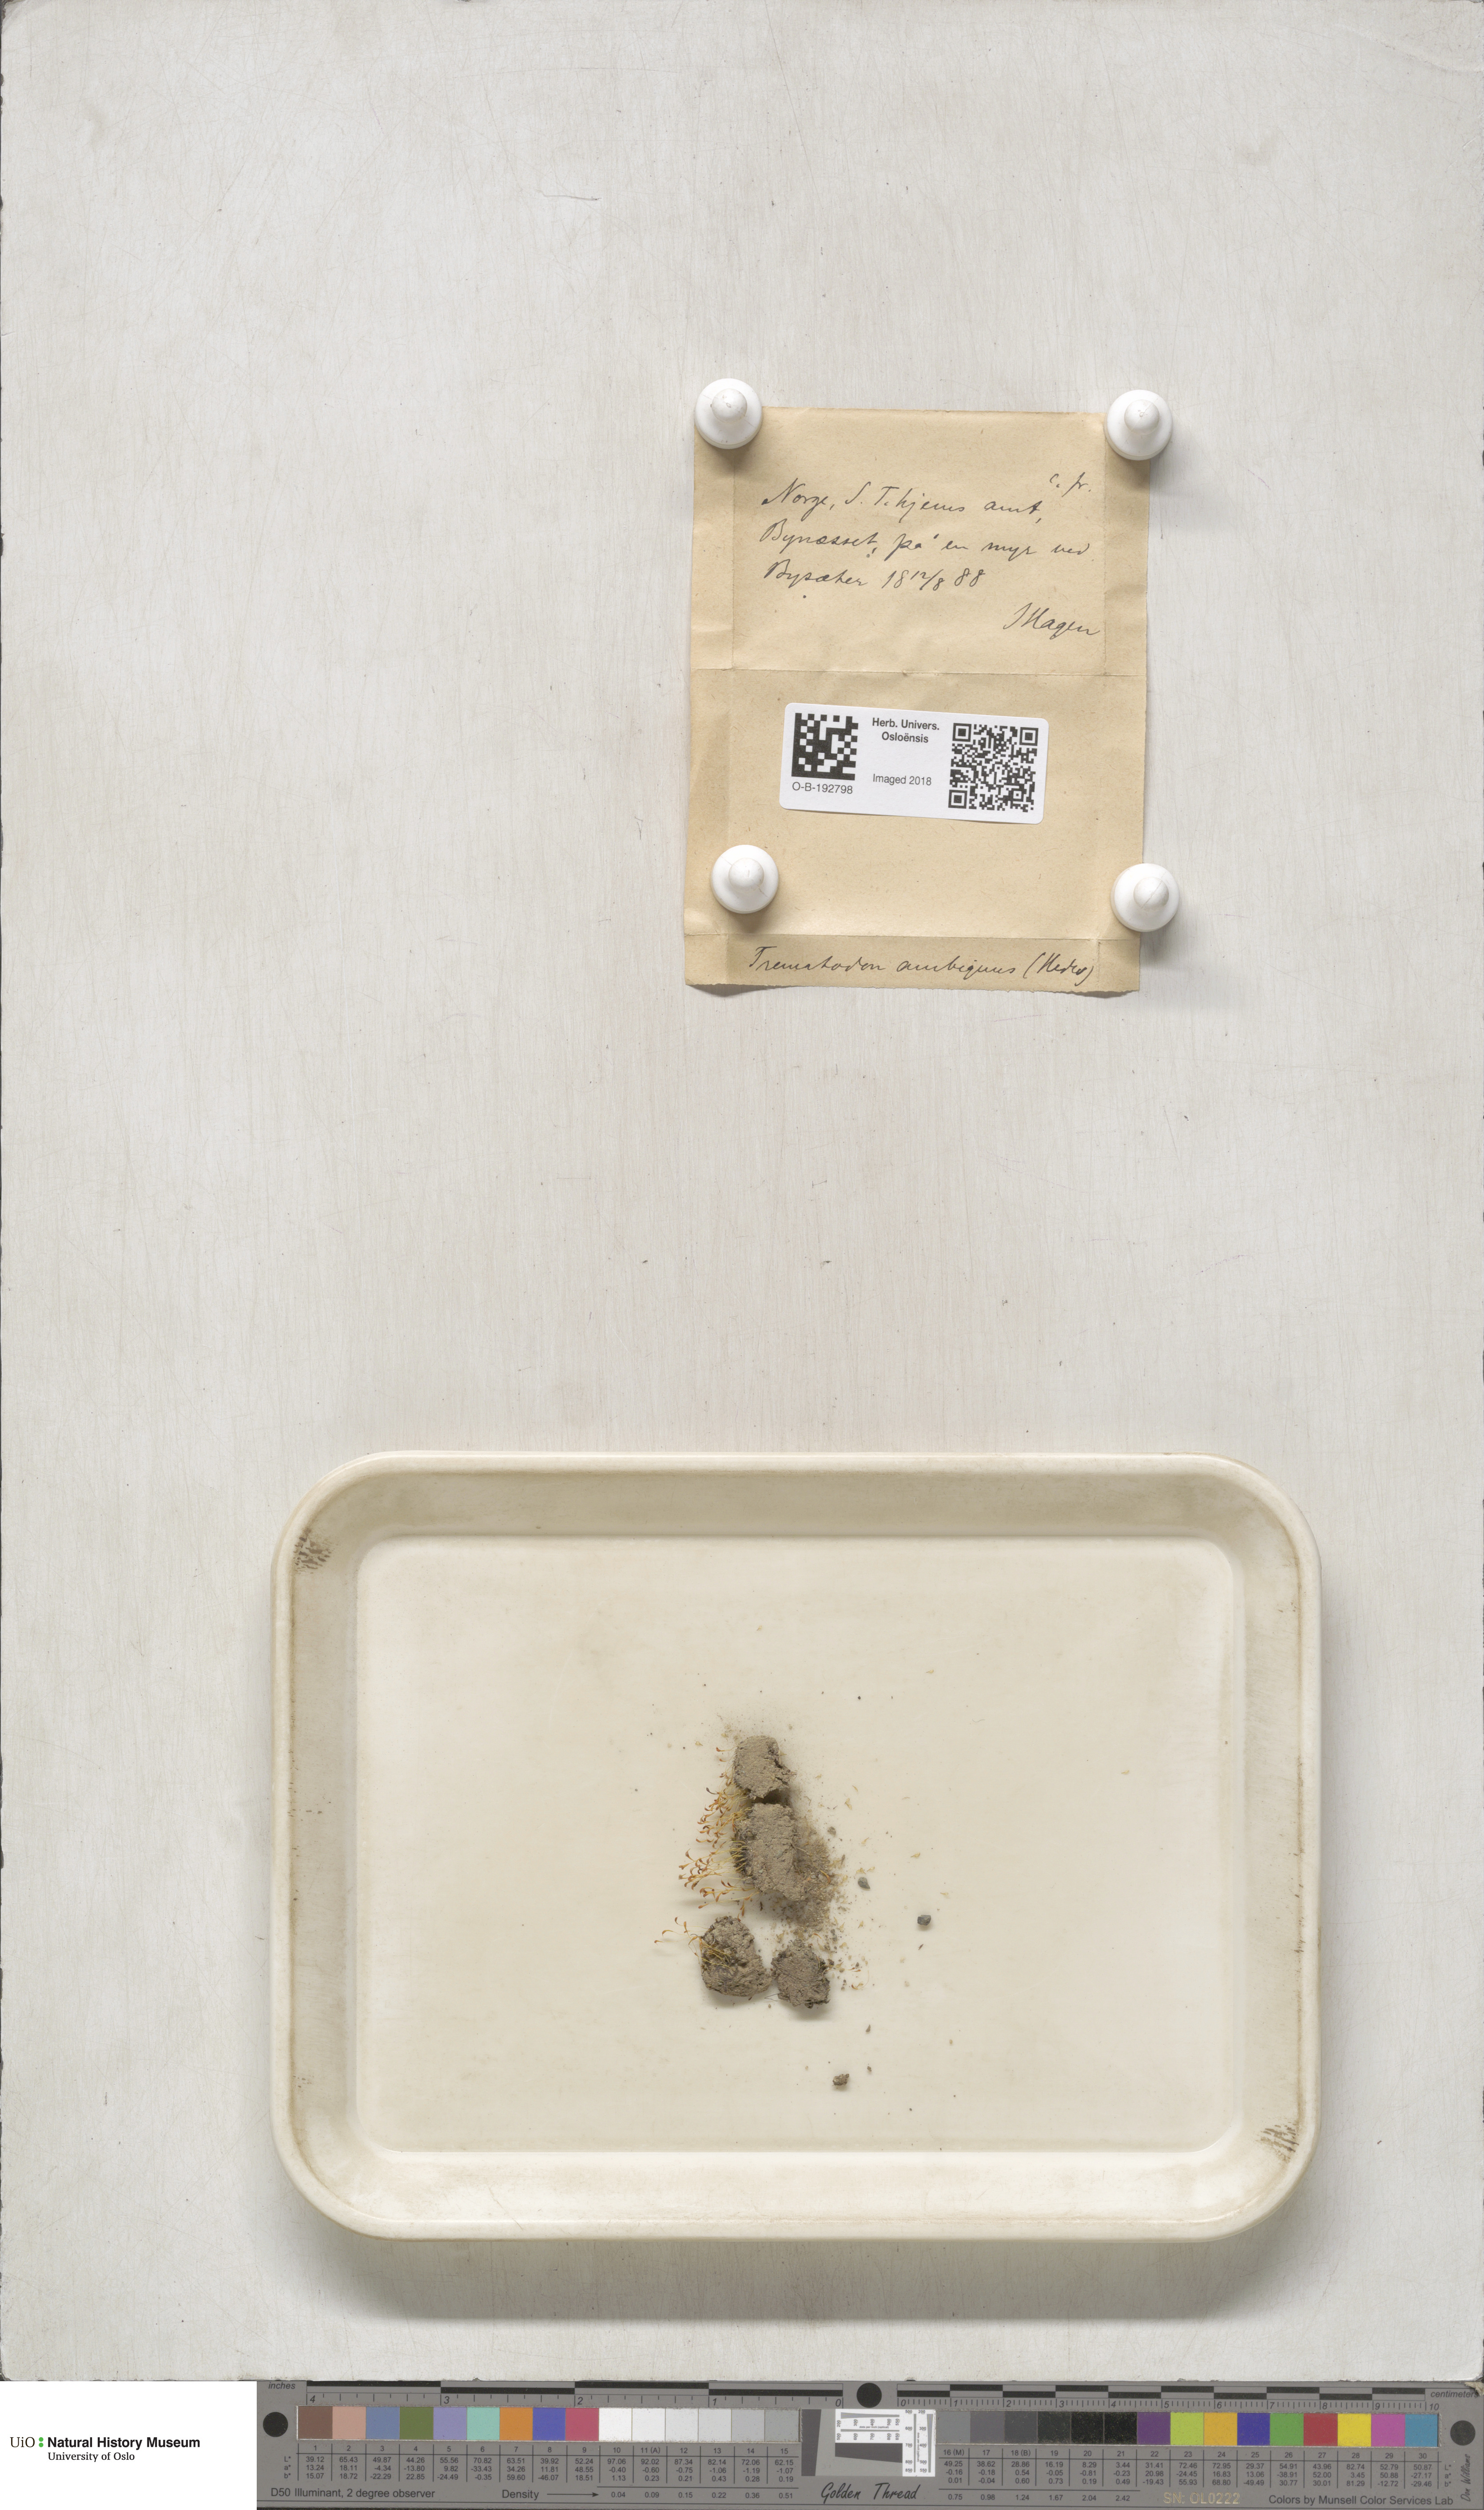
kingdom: Plantae
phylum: Bryophyta
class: Bryopsida
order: Dicranales
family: Bruchiaceae
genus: Trematodon
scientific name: Trematodon ambiguus
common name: Ambiguous long-necked moss
